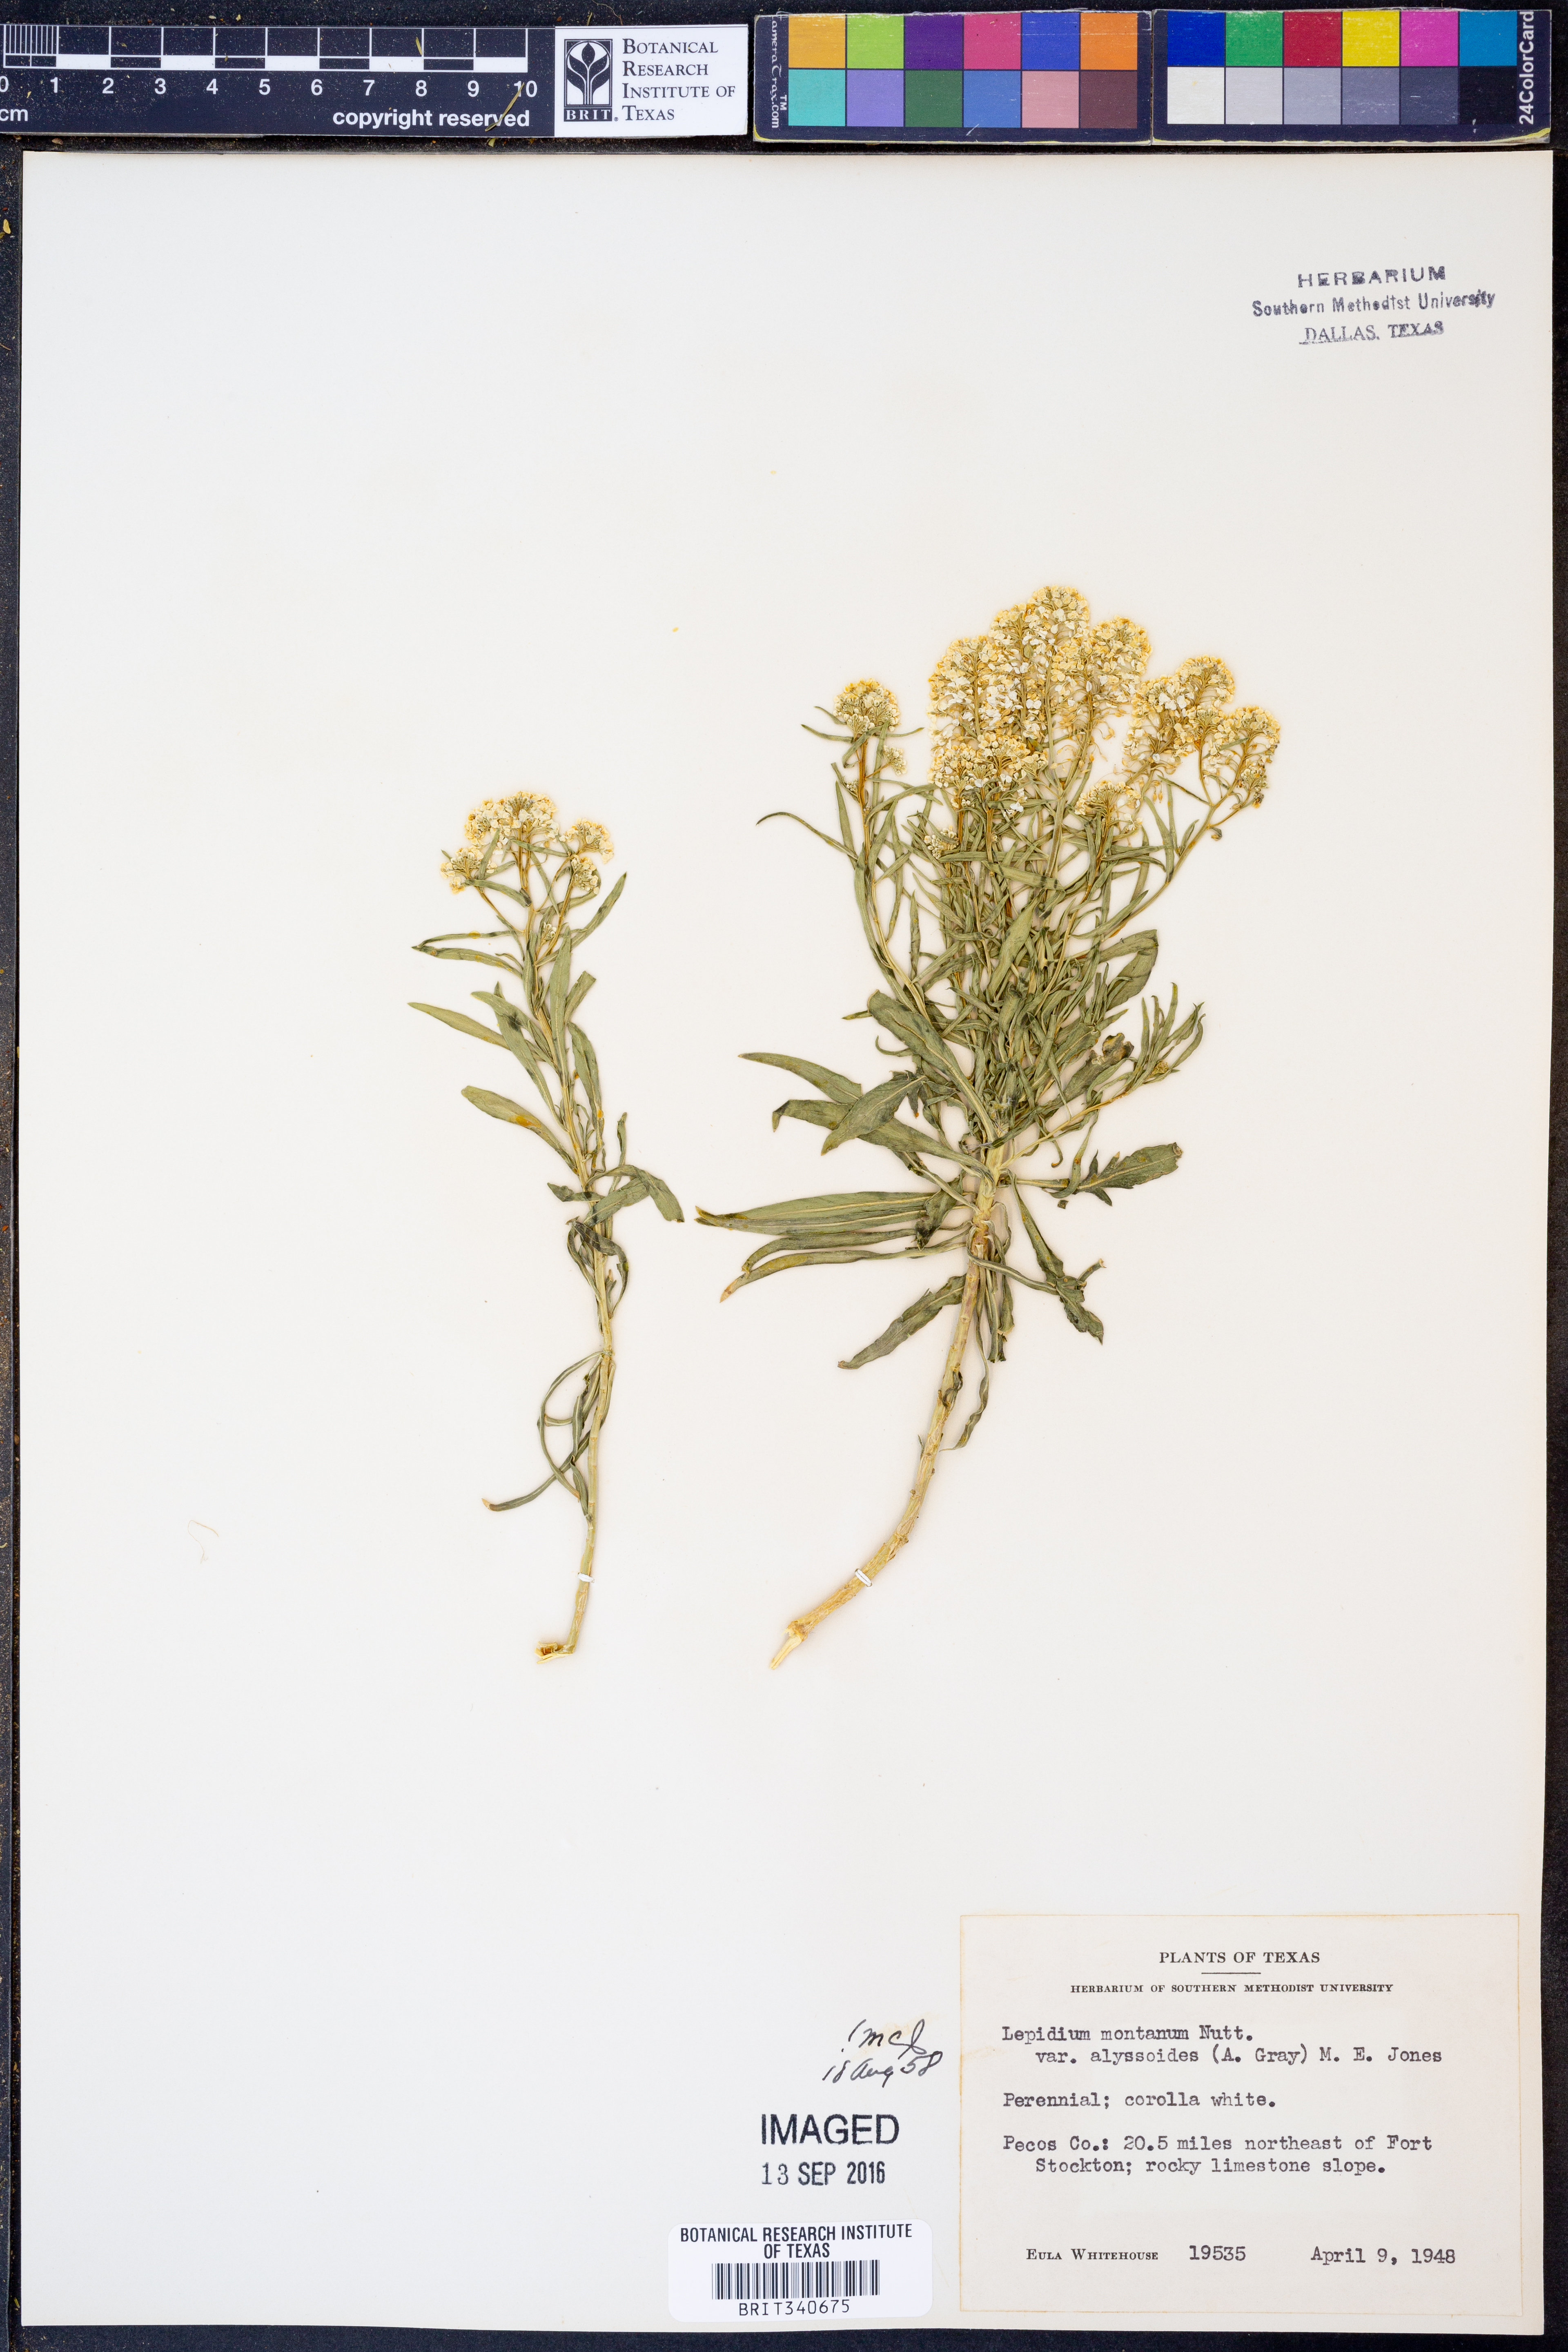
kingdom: Plantae
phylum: Tracheophyta
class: Magnoliopsida
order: Brassicales
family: Brassicaceae
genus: Lepidium
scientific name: Lepidium alyssoides
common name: Mesa pepperweed
